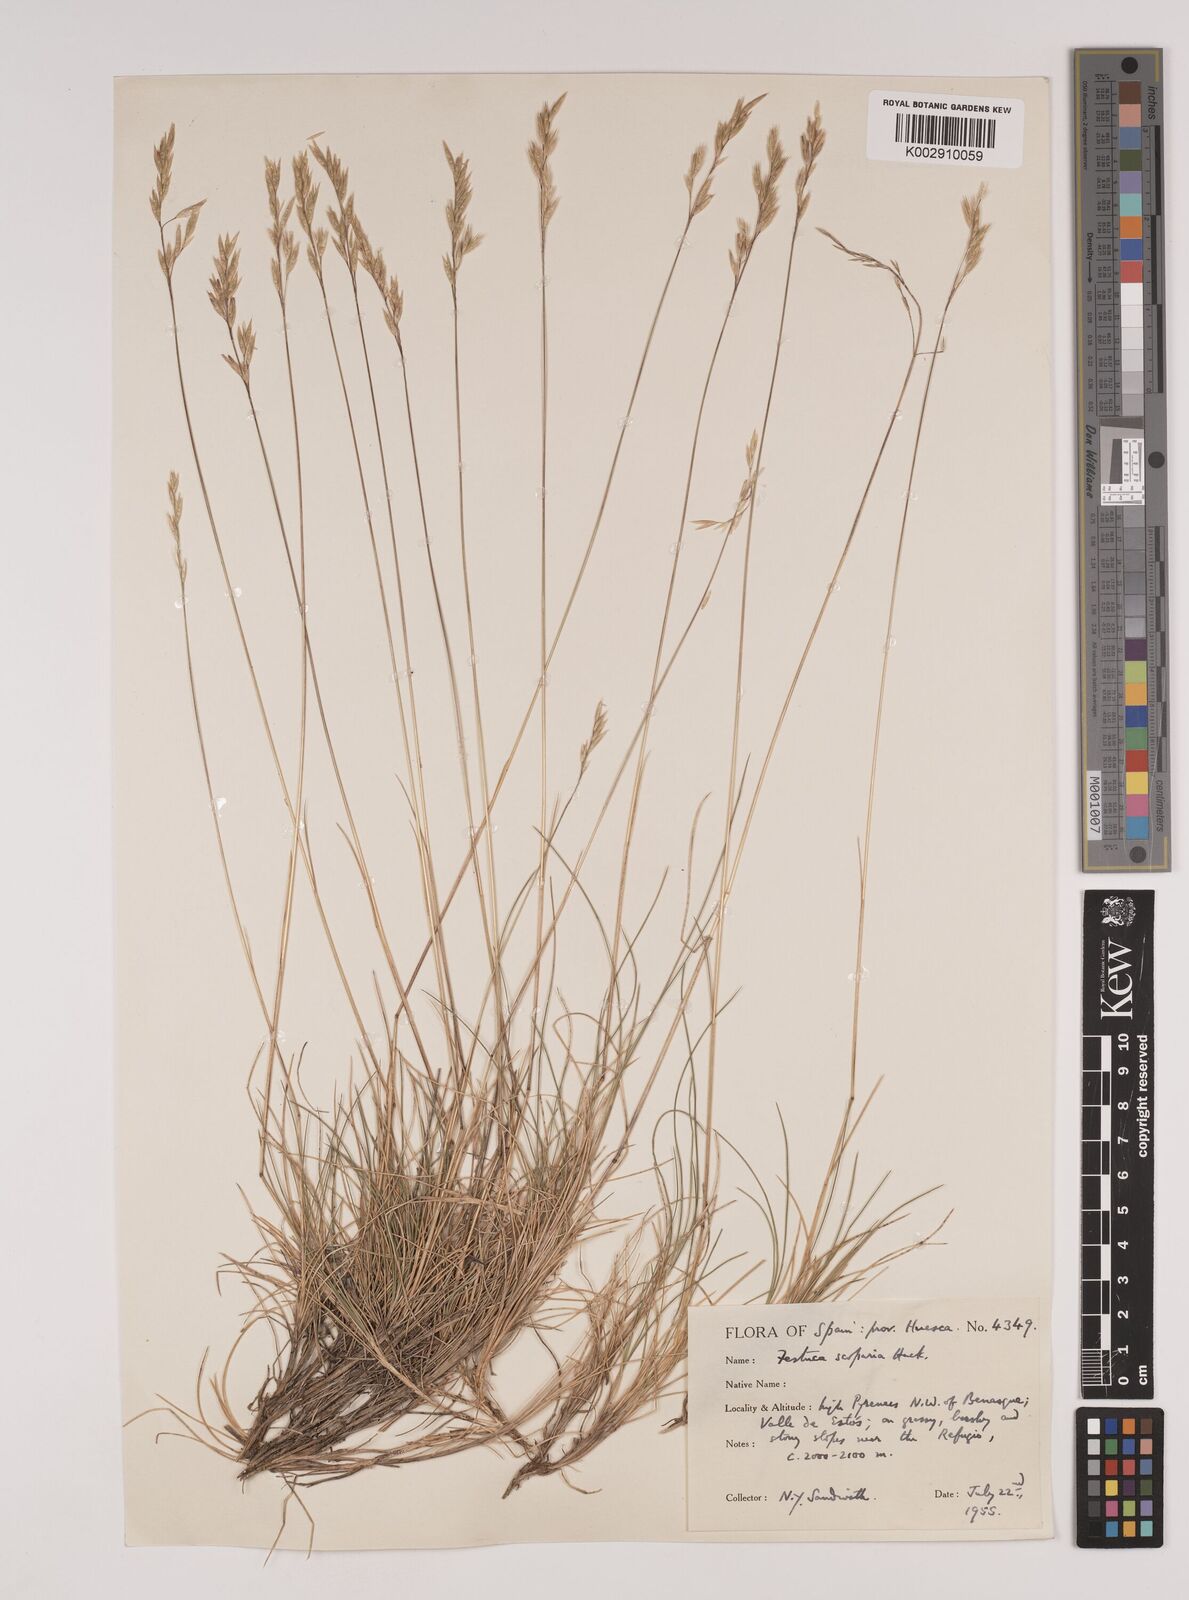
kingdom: Plantae
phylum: Tracheophyta
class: Liliopsida
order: Poales
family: Poaceae
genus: Festuca
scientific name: Festuca gautieri
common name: Spiky fescue
